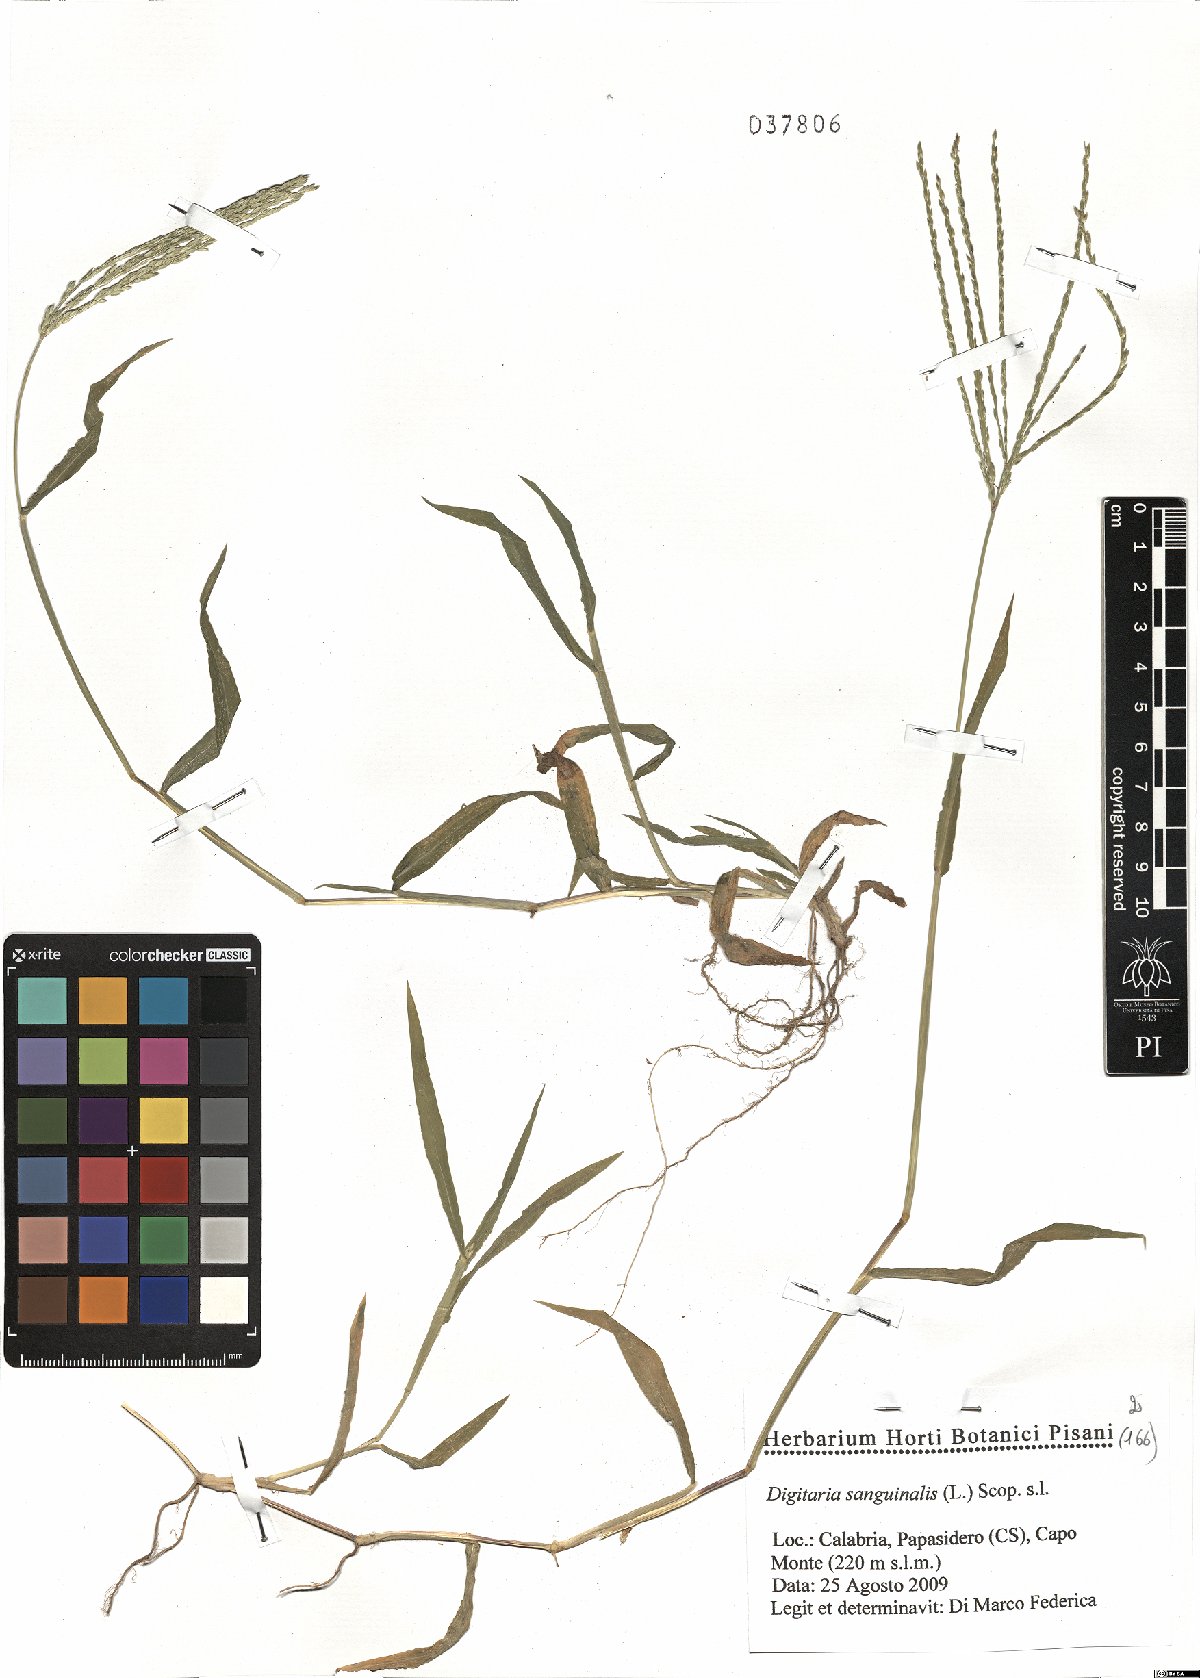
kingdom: Plantae
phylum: Tracheophyta
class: Liliopsida
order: Poales
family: Poaceae
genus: Digitaria
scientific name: Digitaria sanguinalis
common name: Hairy crabgrass
